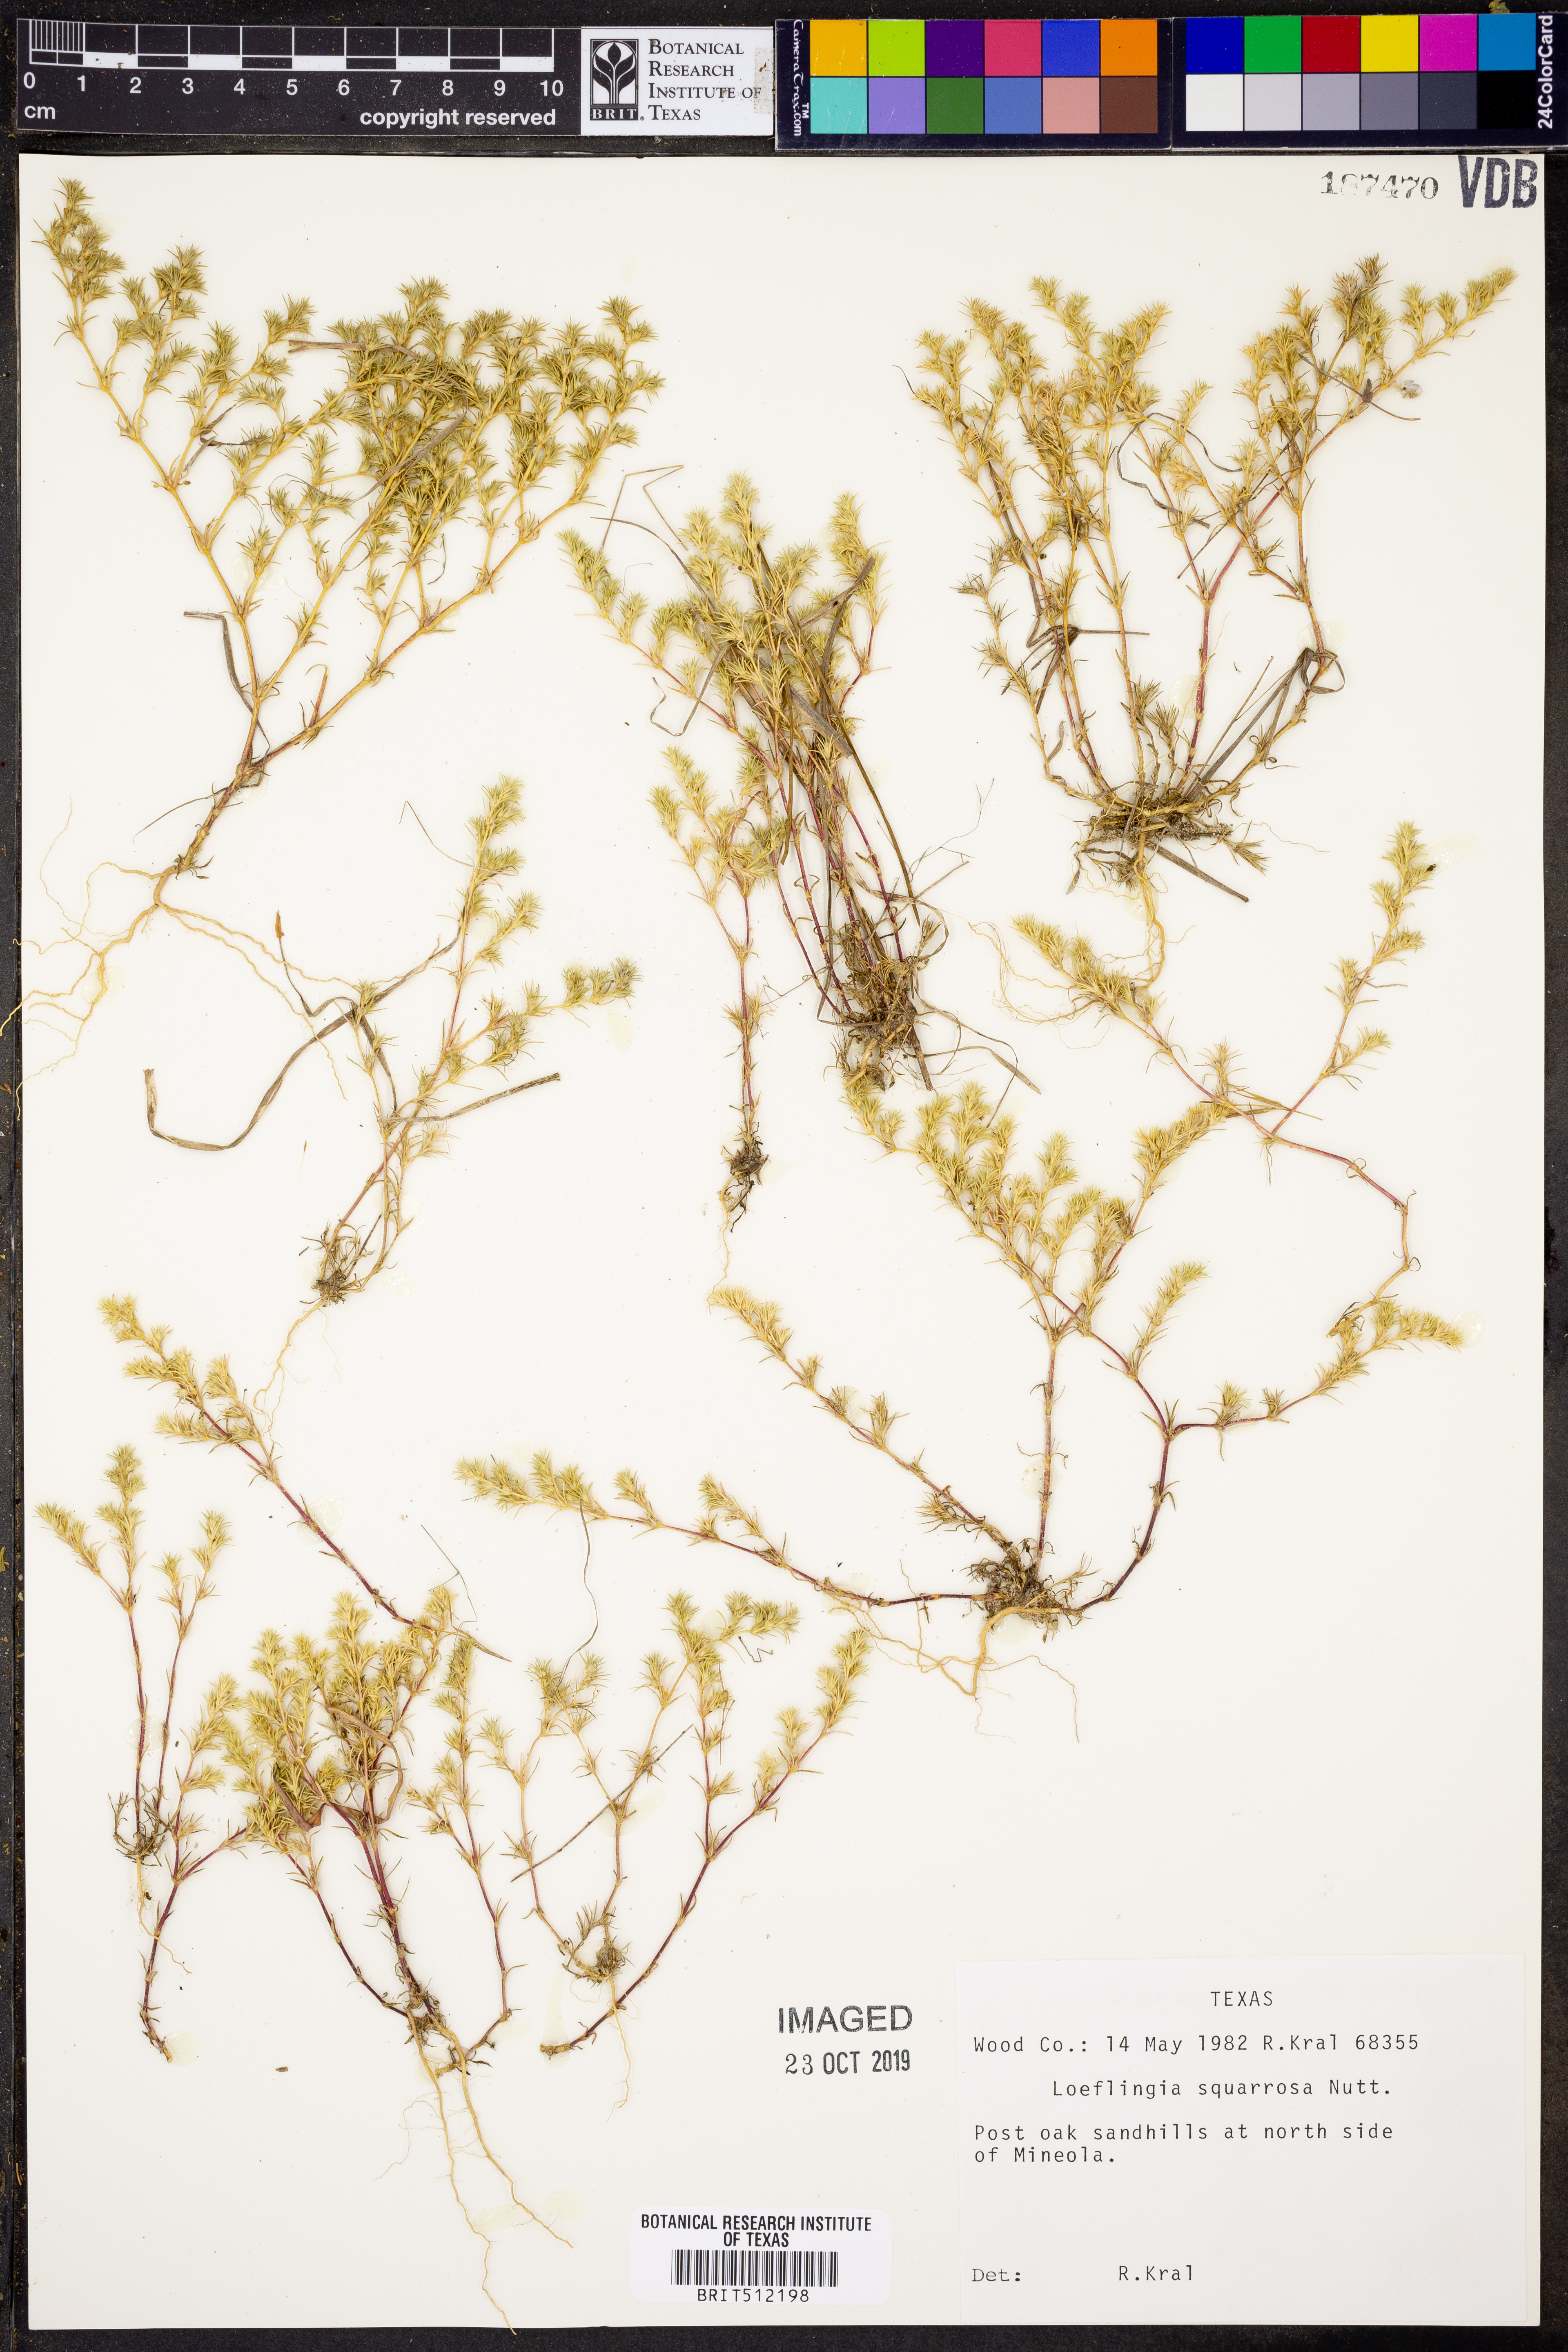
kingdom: Plantae
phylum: Tracheophyta
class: Magnoliopsida
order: Caryophyllales
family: Caryophyllaceae
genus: Loeflingia
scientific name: Loeflingia squarrosa
